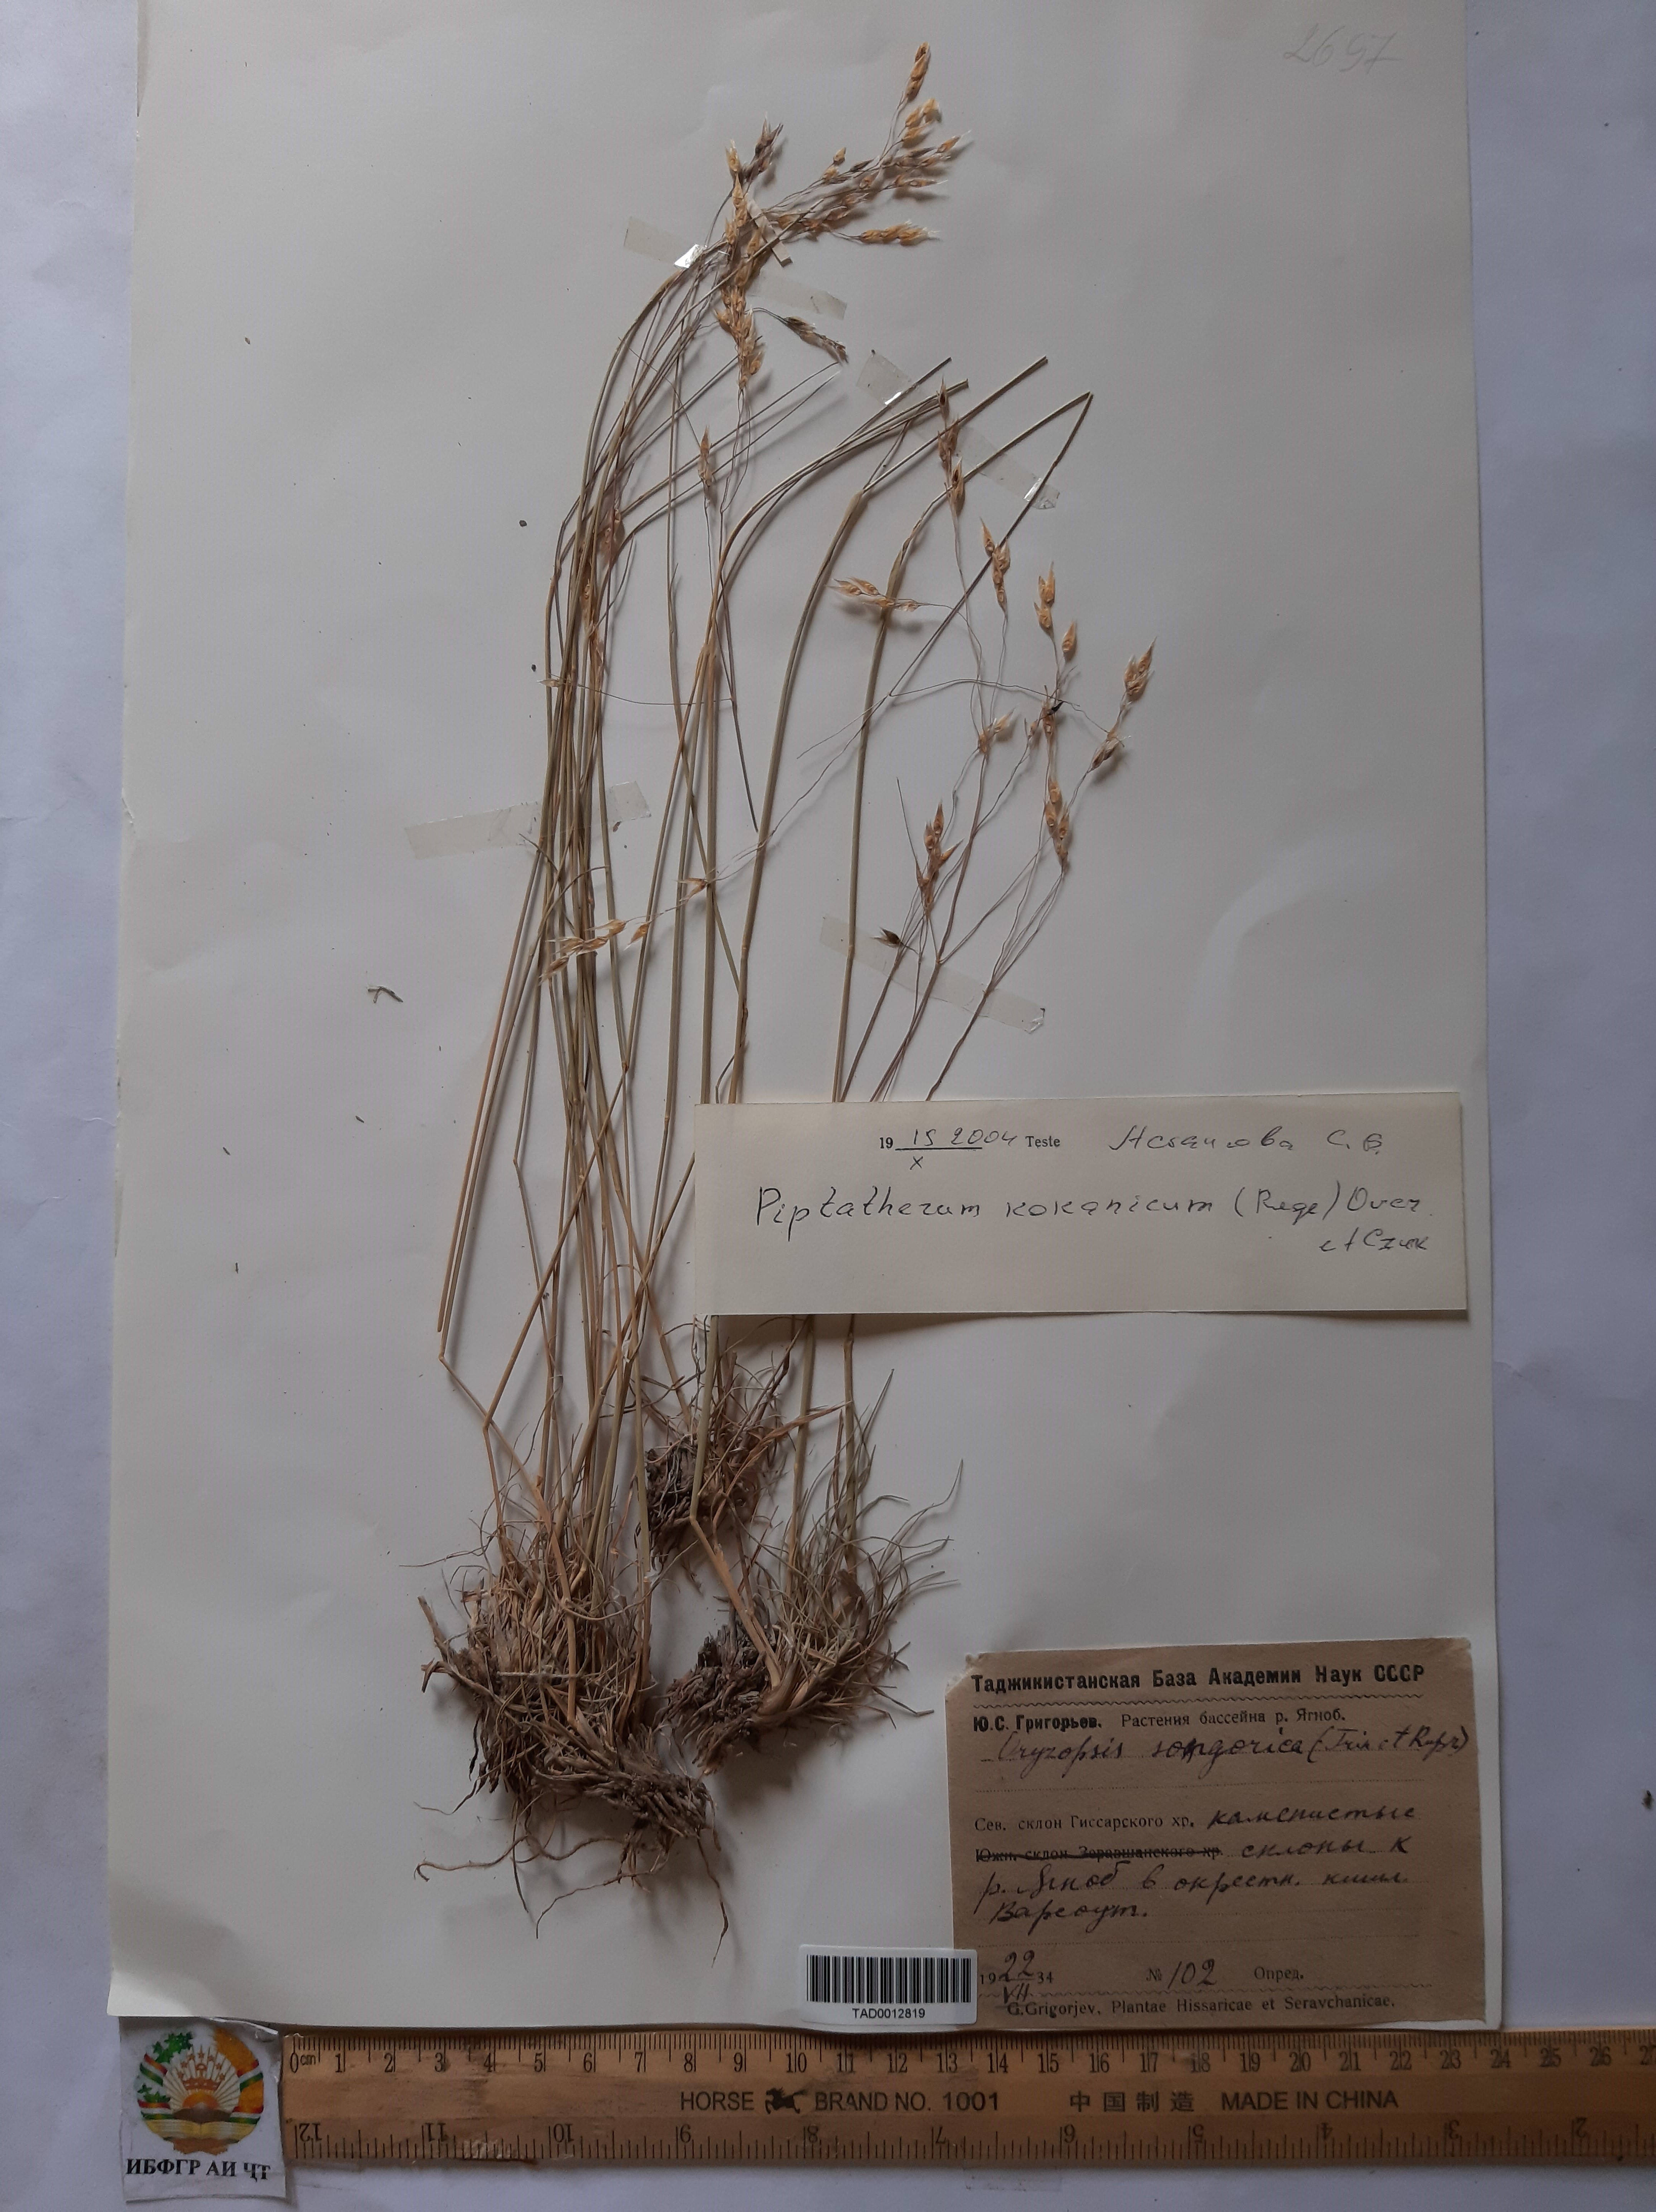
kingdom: Plantae
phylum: Tracheophyta
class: Liliopsida
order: Poales
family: Poaceae
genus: Piptatherum
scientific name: Piptatherum songaricum
